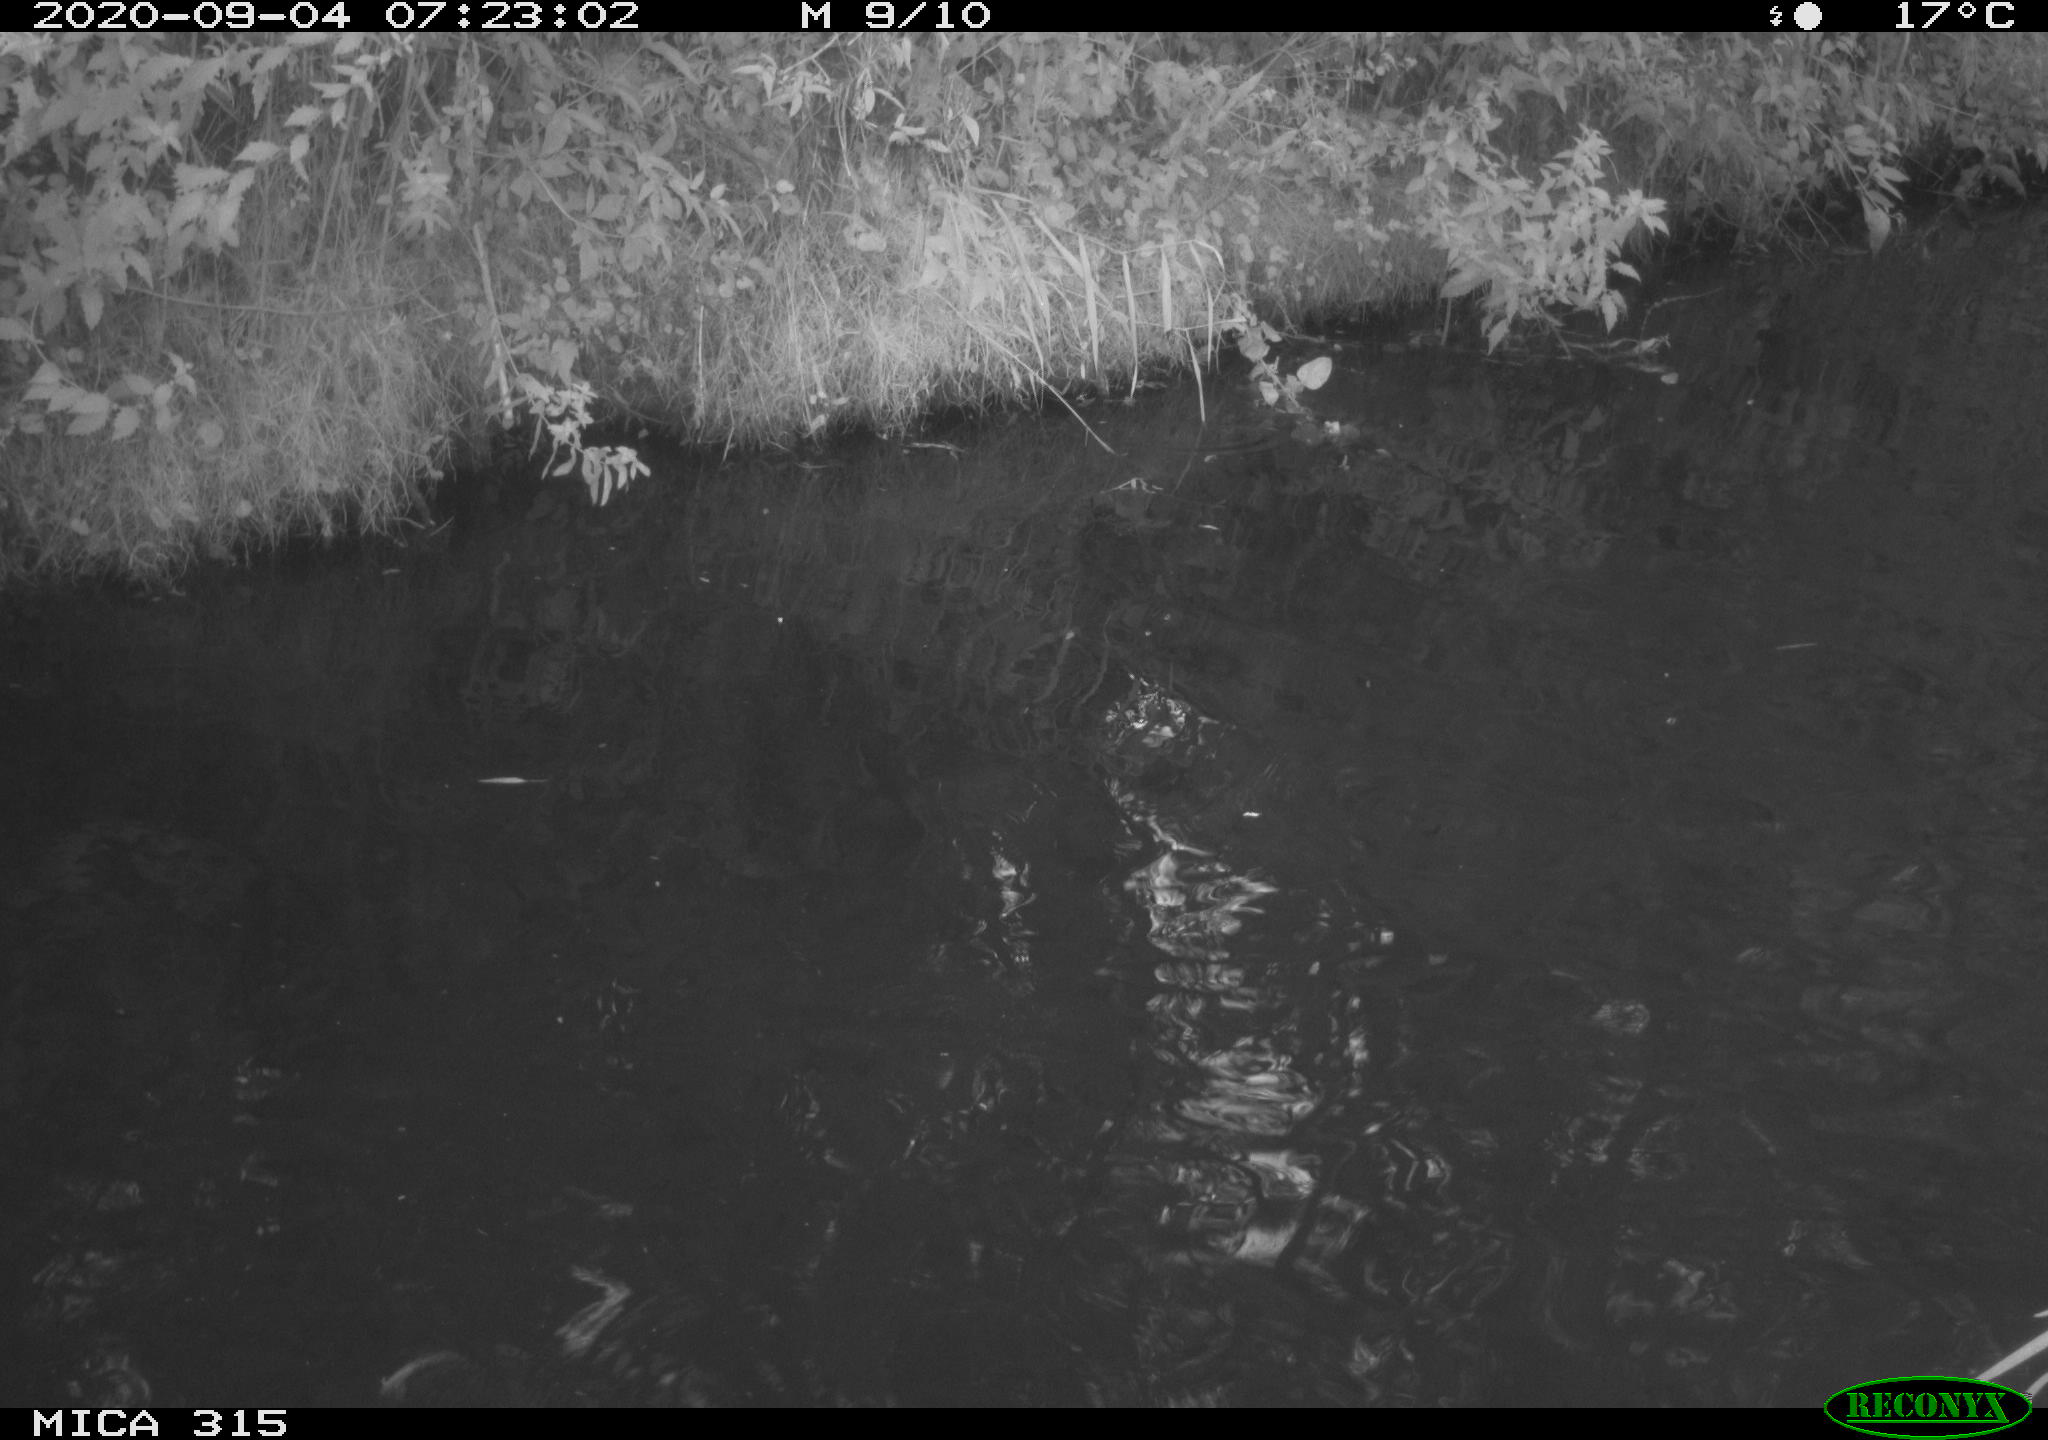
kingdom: Animalia
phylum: Chordata
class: Aves
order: Anseriformes
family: Anatidae
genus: Anas
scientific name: Anas platyrhynchos
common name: Mallard
